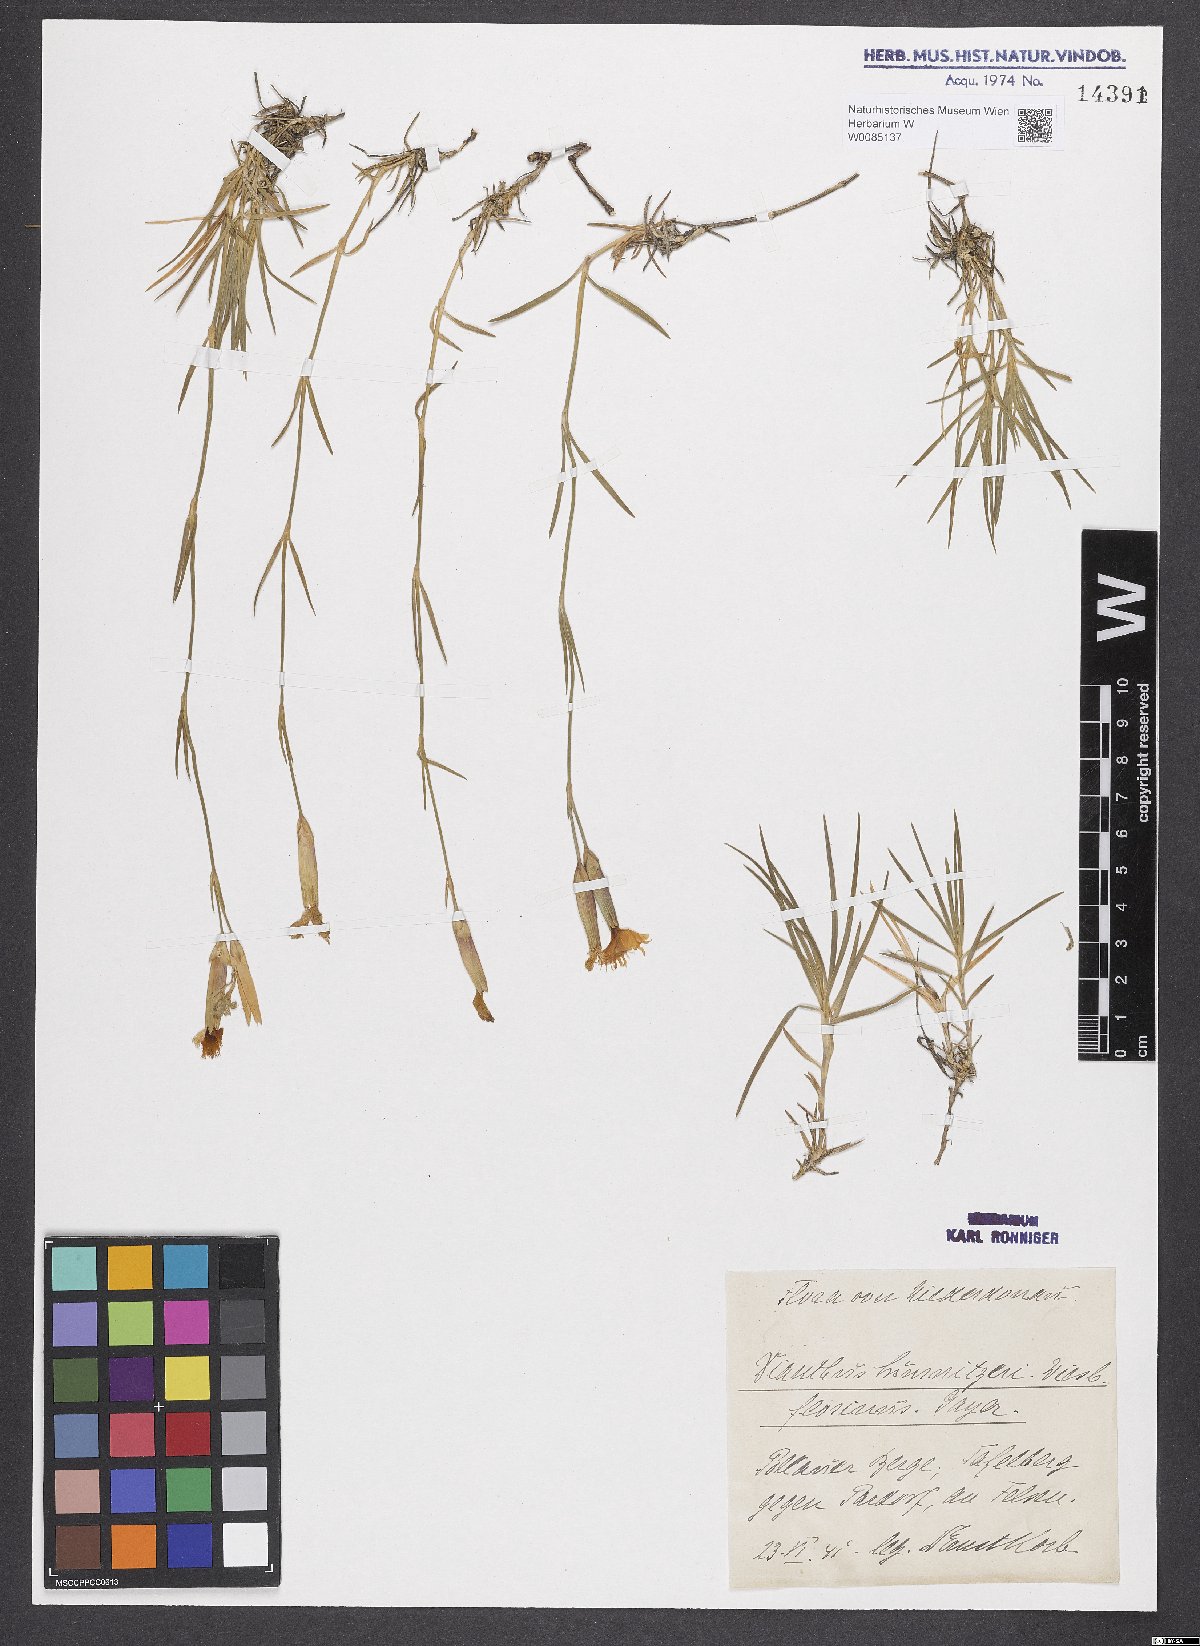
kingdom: Plantae
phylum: Tracheophyta
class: Magnoliopsida
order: Caryophyllales
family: Caryophyllaceae
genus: Dianthus
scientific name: Dianthus praecox
